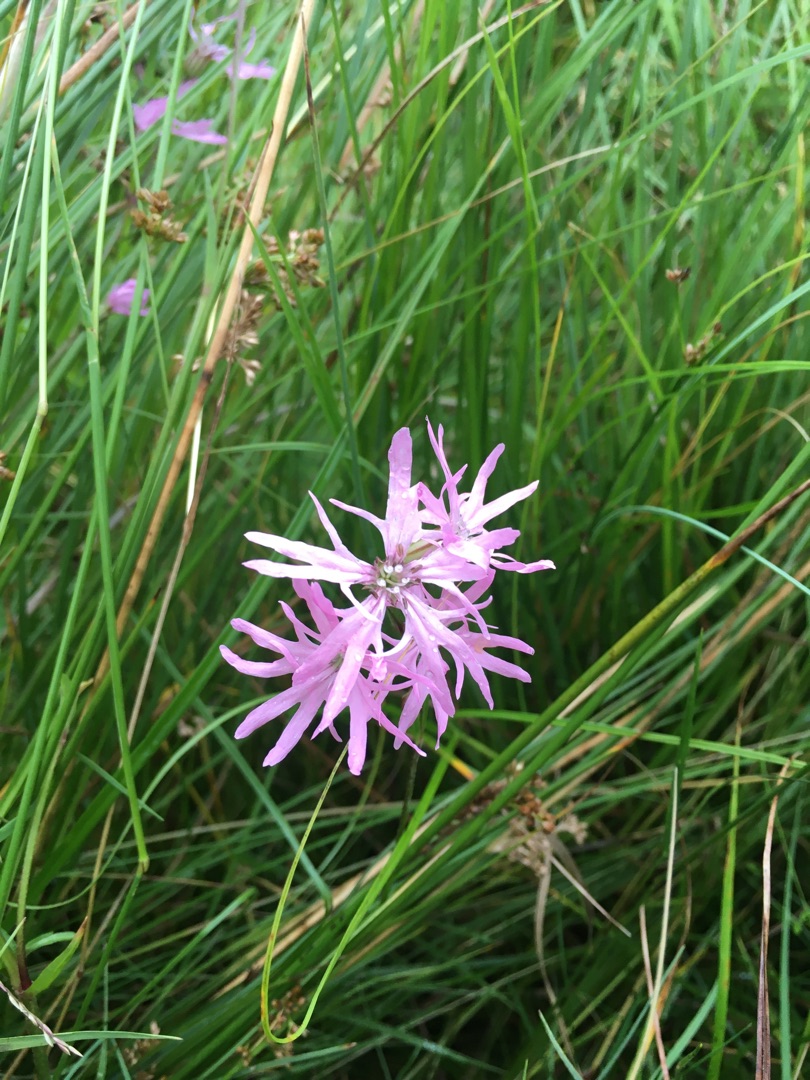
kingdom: Plantae
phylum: Tracheophyta
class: Magnoliopsida
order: Caryophyllales
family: Caryophyllaceae
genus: Silene
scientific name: Silene flos-cuculi
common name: Trævlekrone
